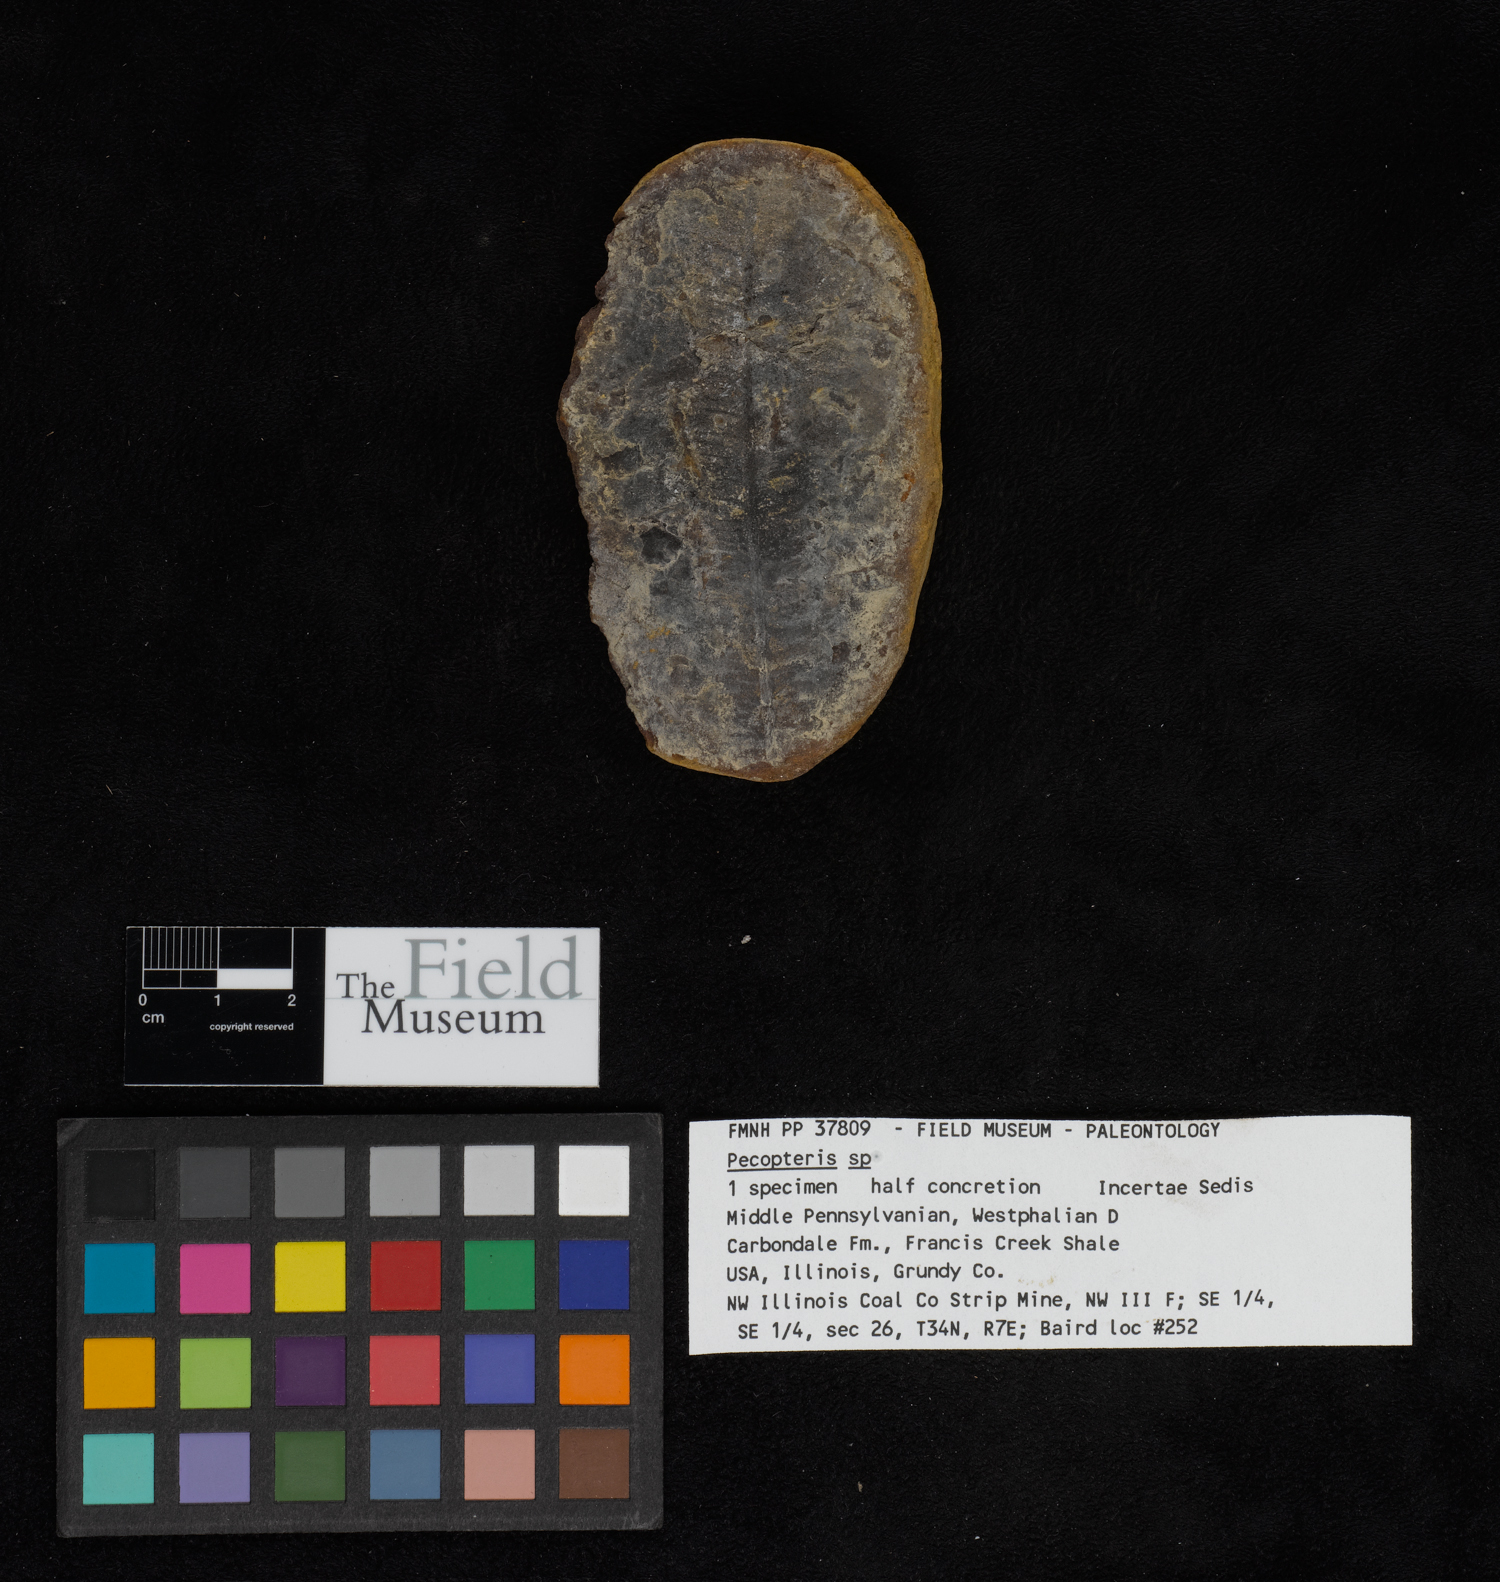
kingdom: Plantae
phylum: Tracheophyta
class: Polypodiopsida
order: Marattiales
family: Asterothecaceae
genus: Pecopteris
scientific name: Pecopteris
